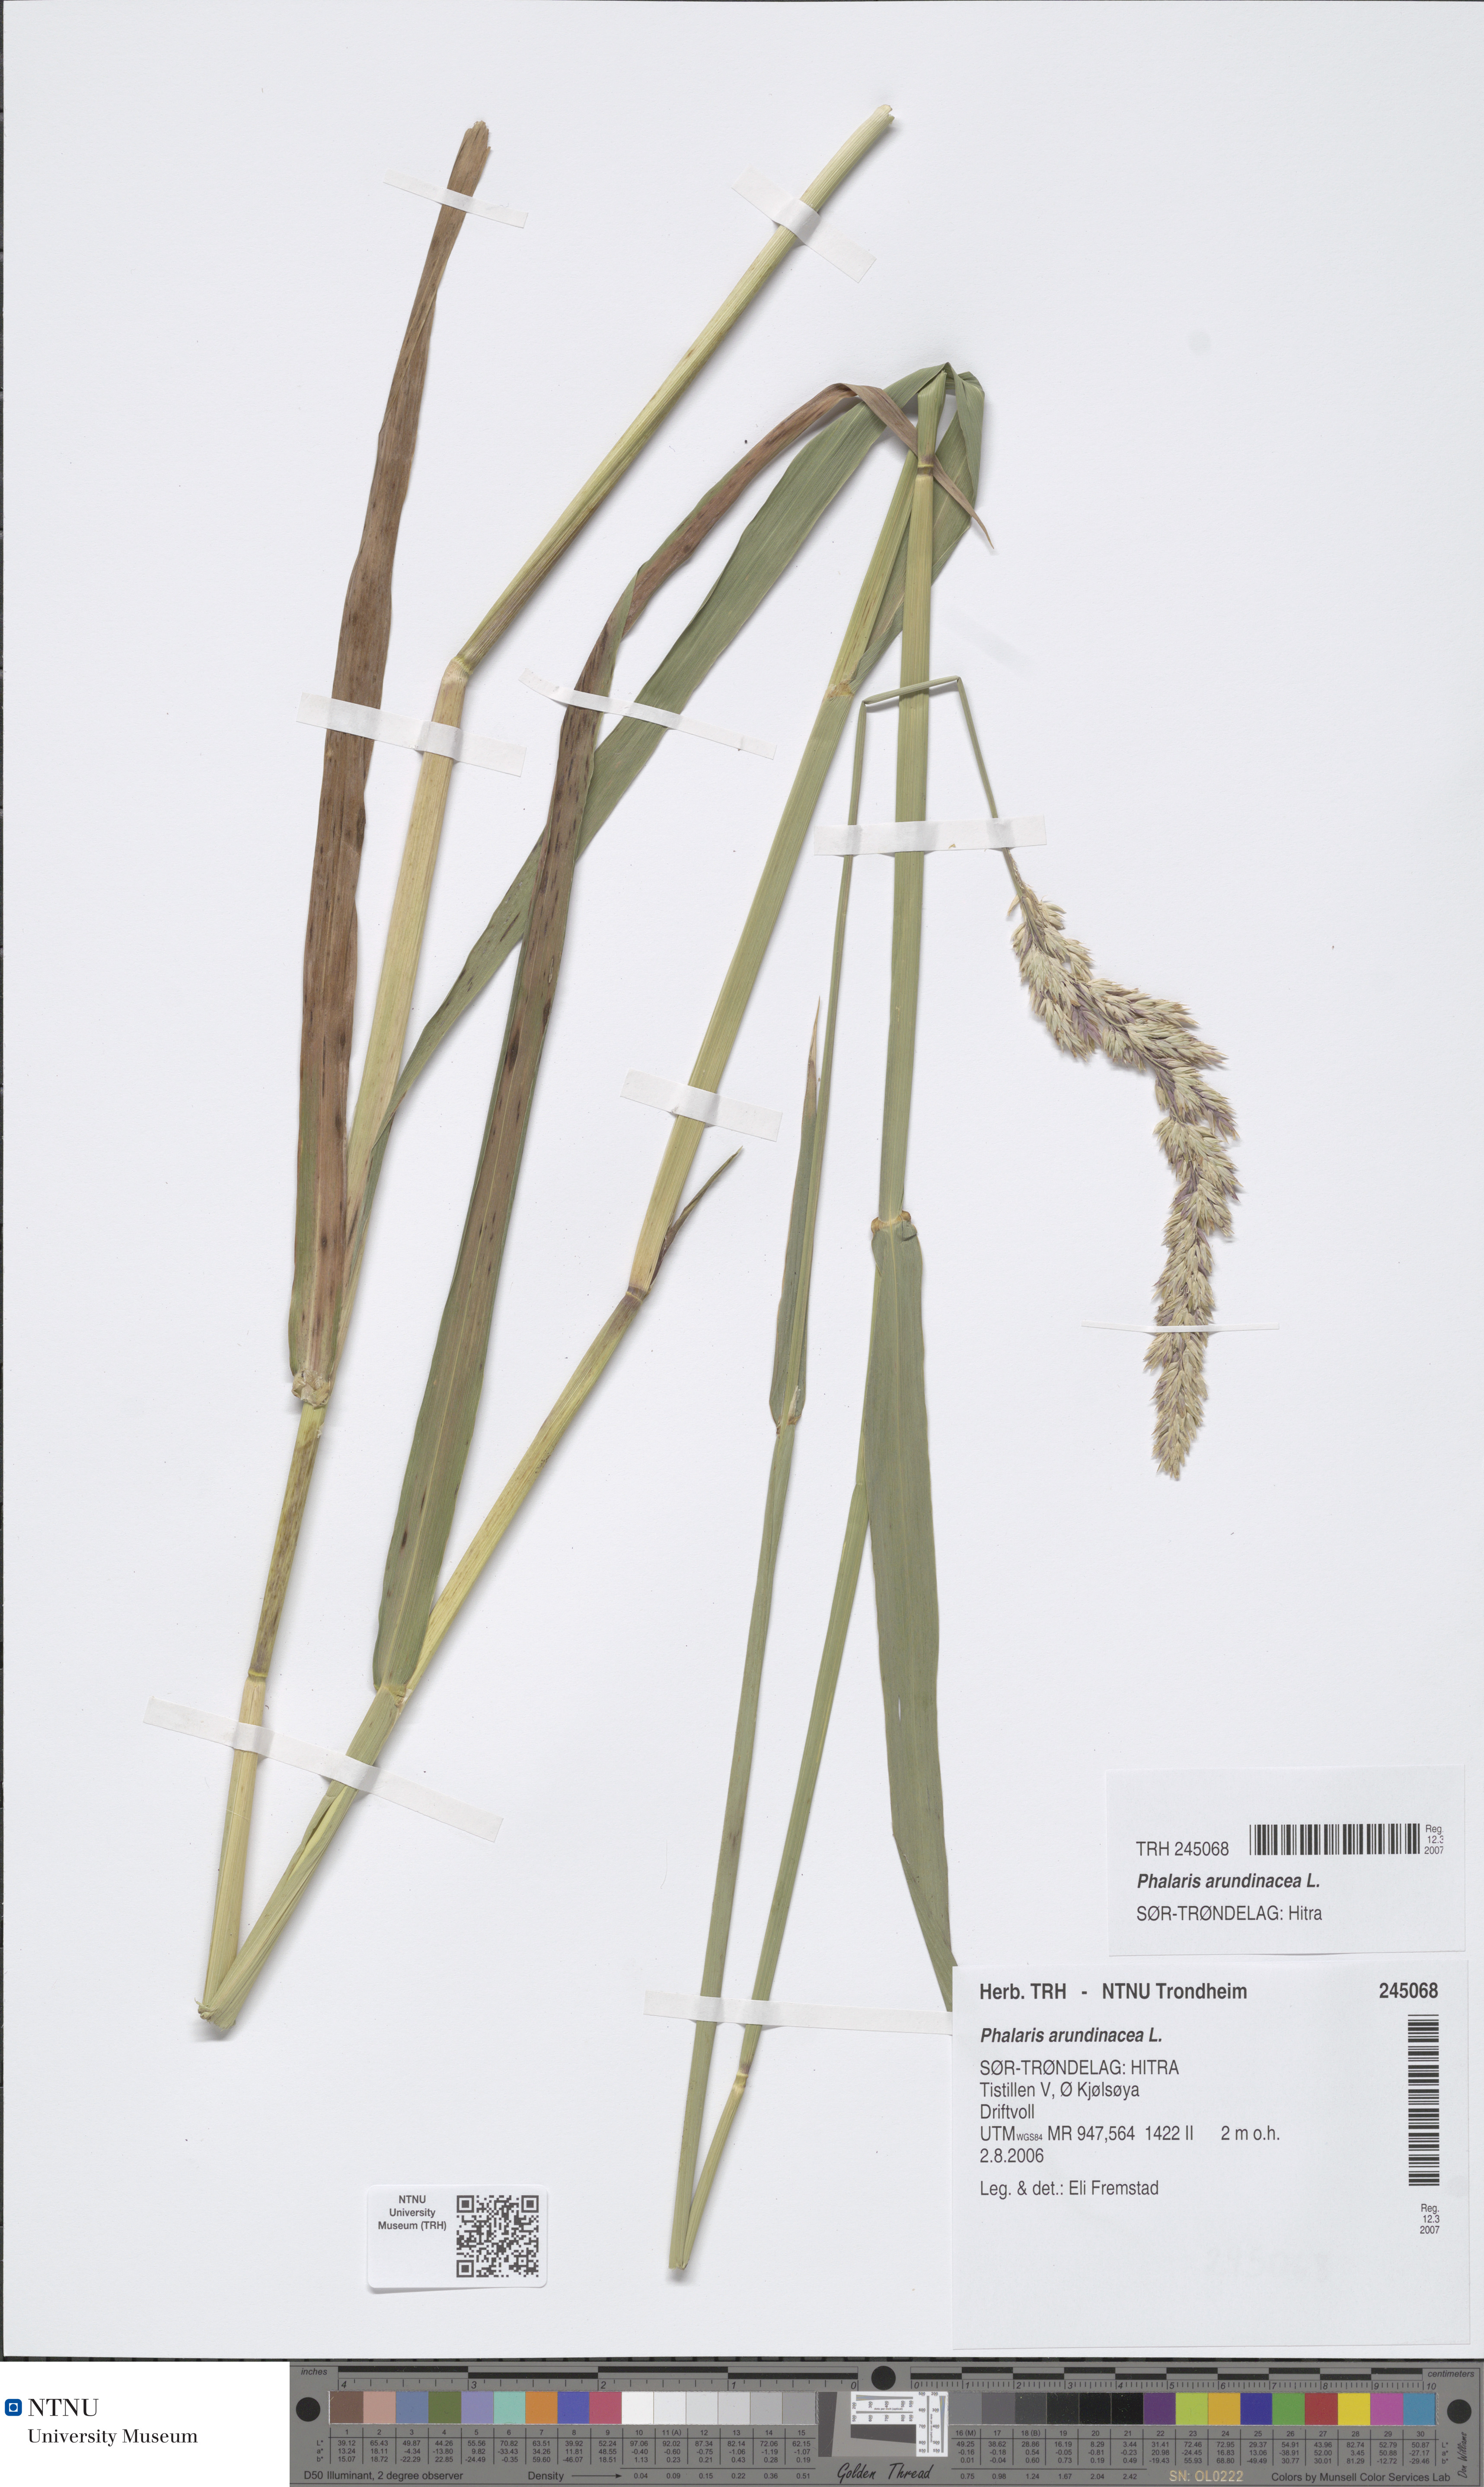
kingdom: Plantae
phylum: Tracheophyta
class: Liliopsida
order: Poales
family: Poaceae
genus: Phalaris
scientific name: Phalaris arundinacea
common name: Reed canary-grass
